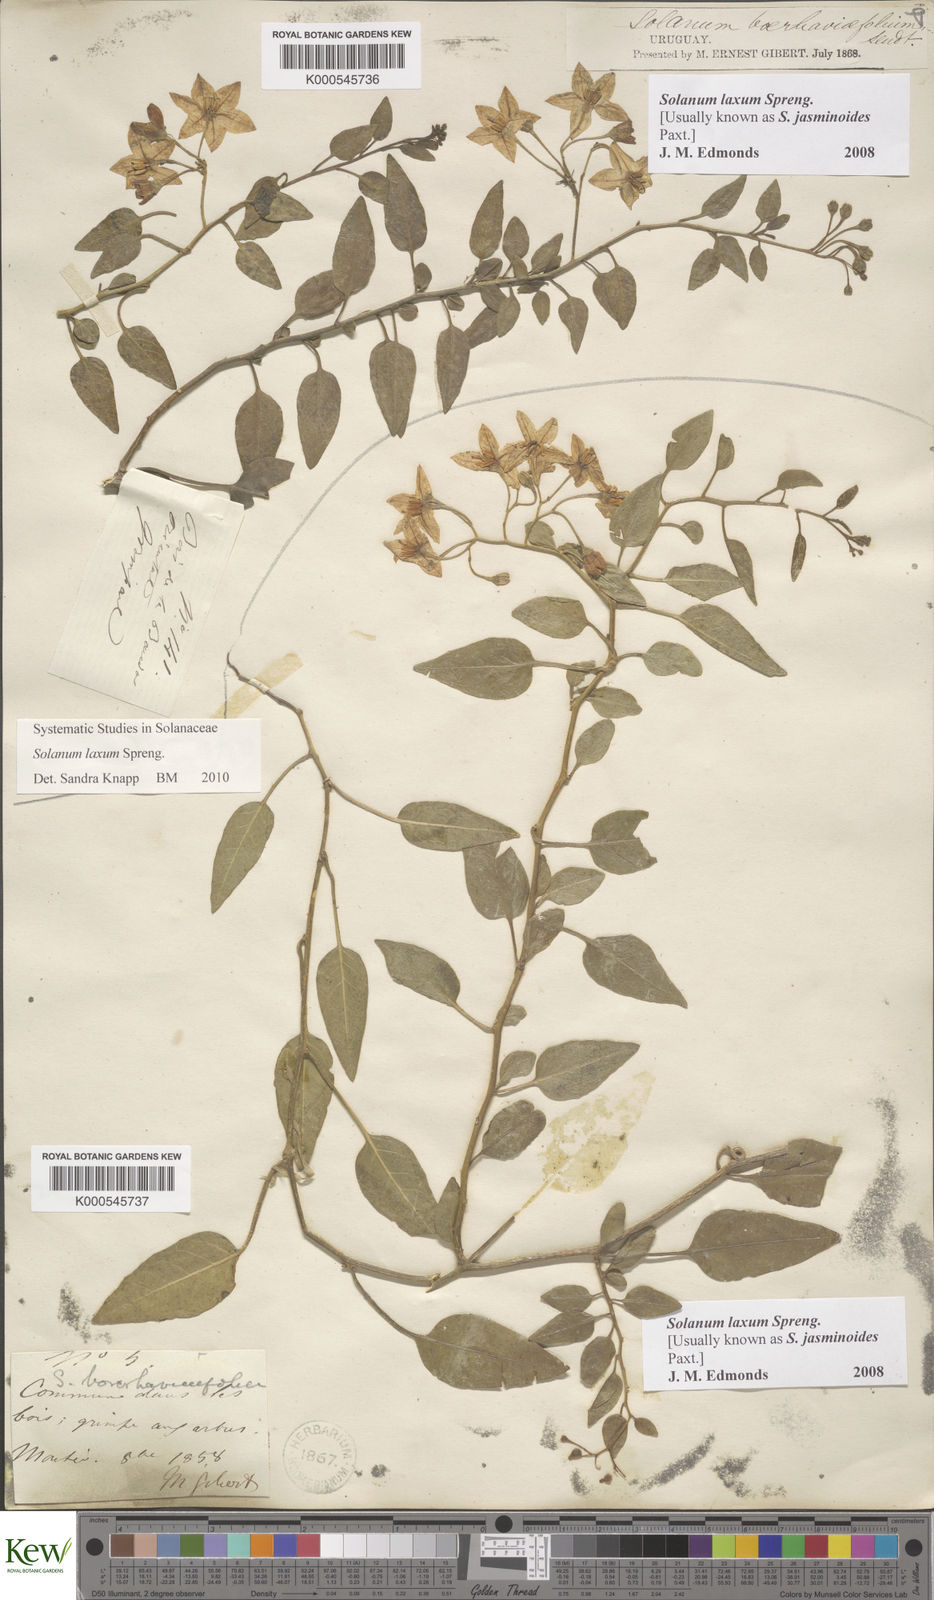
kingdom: Plantae
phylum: Tracheophyta
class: Magnoliopsida
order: Solanales
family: Solanaceae
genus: Solanum
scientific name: Solanum laxum
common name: Nightshade
